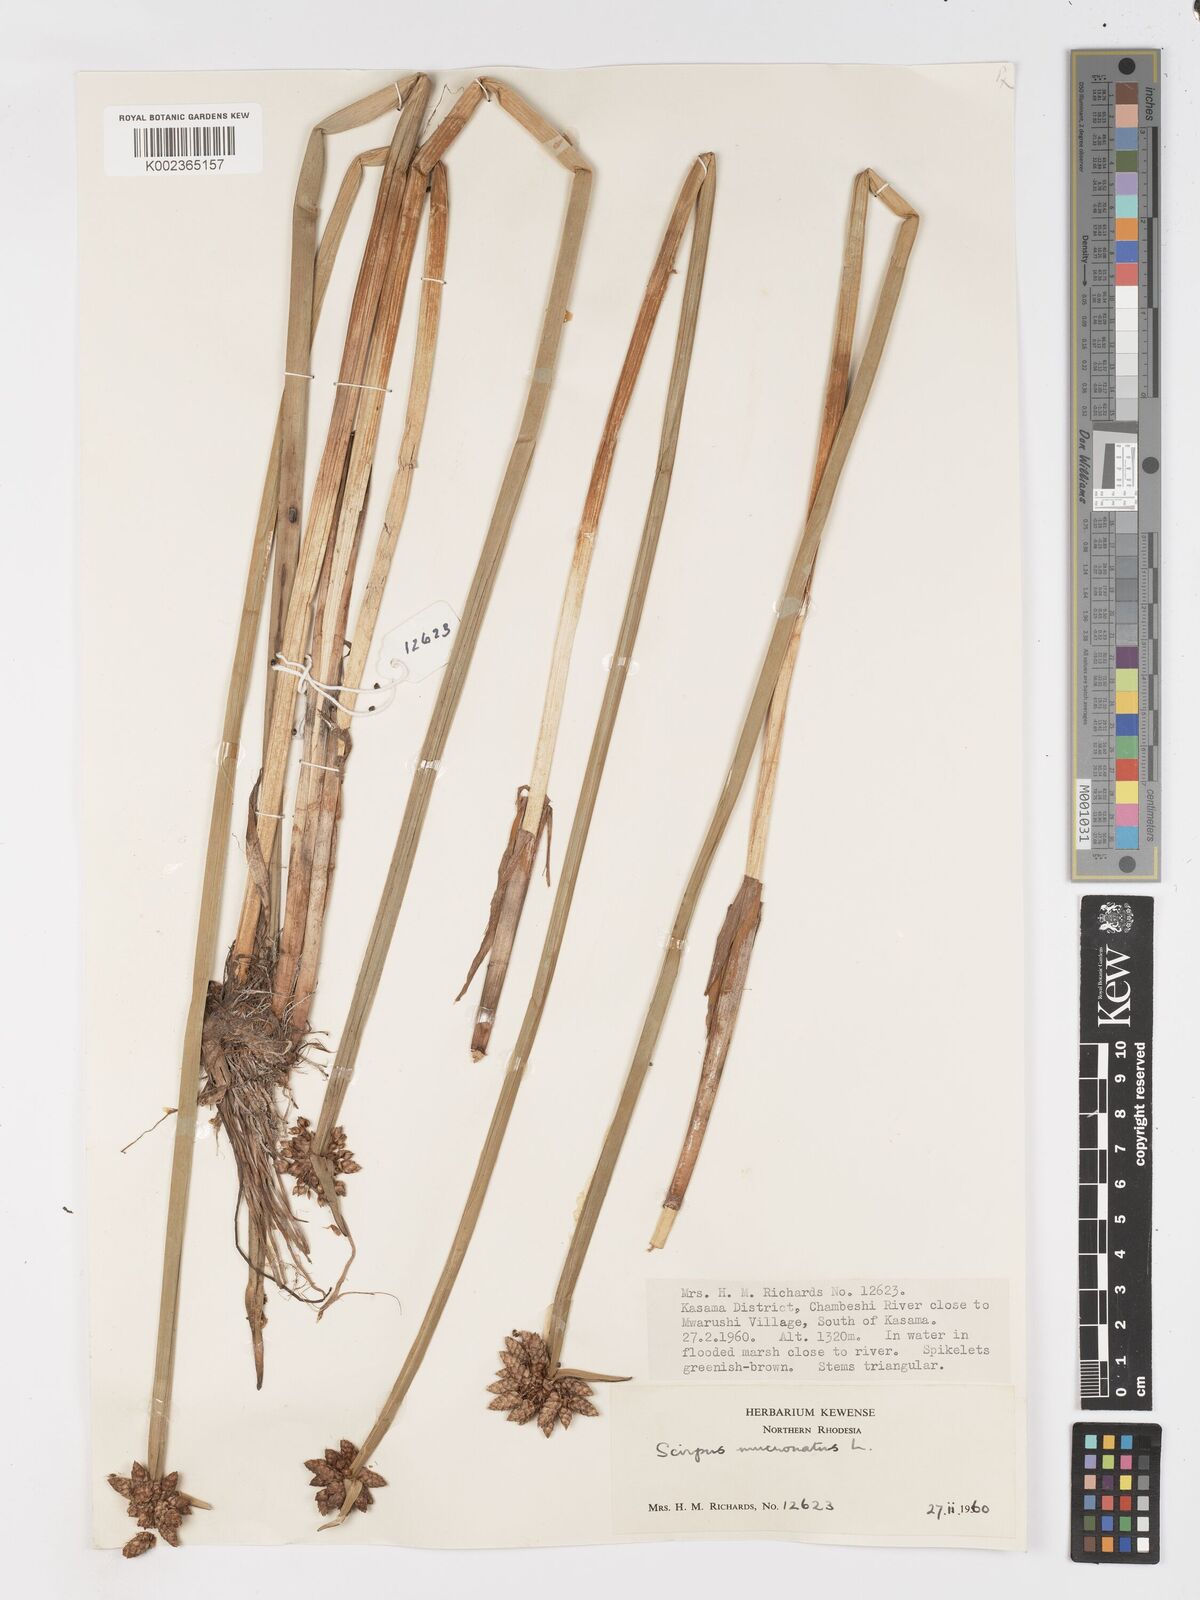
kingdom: Plantae
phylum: Tracheophyta
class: Liliopsida
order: Poales
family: Cyperaceae
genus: Schoenoplectiella
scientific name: Schoenoplectiella mucronata
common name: Bog bulrush
